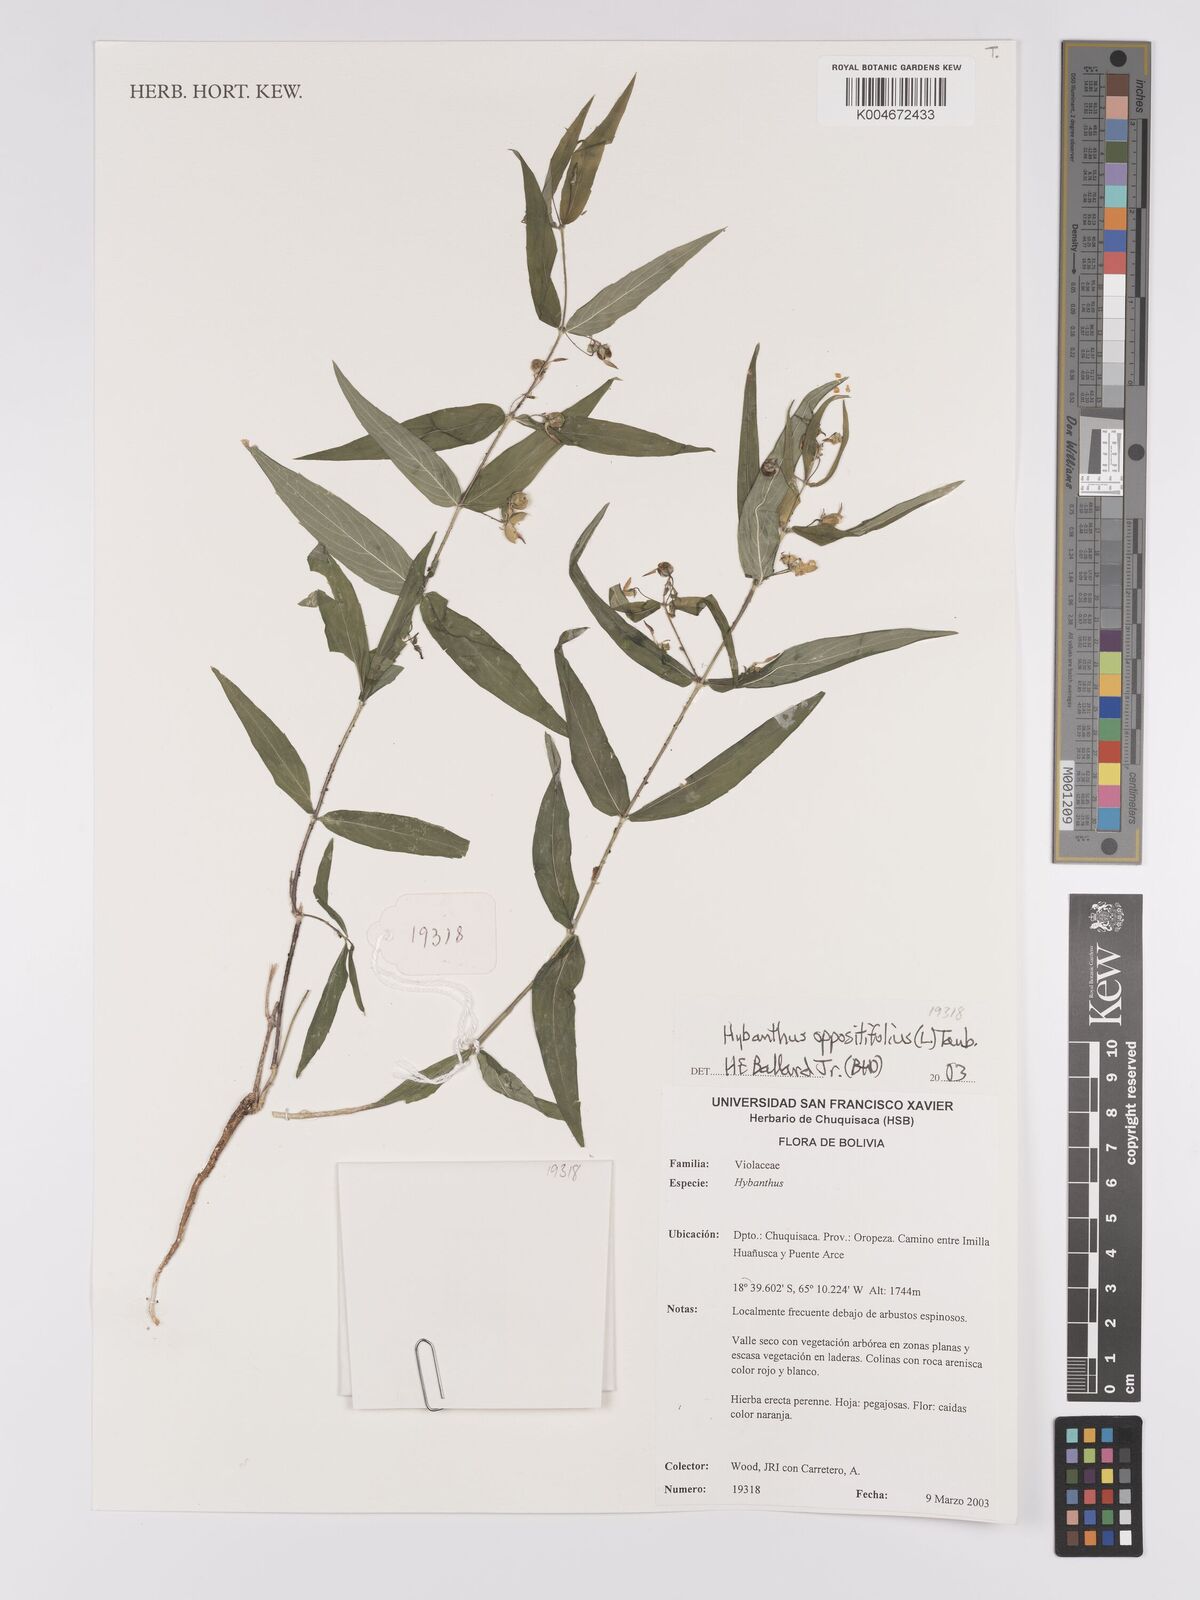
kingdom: Plantae
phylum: Tracheophyta
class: Magnoliopsida
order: Malpighiales
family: Violaceae
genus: Pombalia
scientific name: Pombalia oppositifolia
